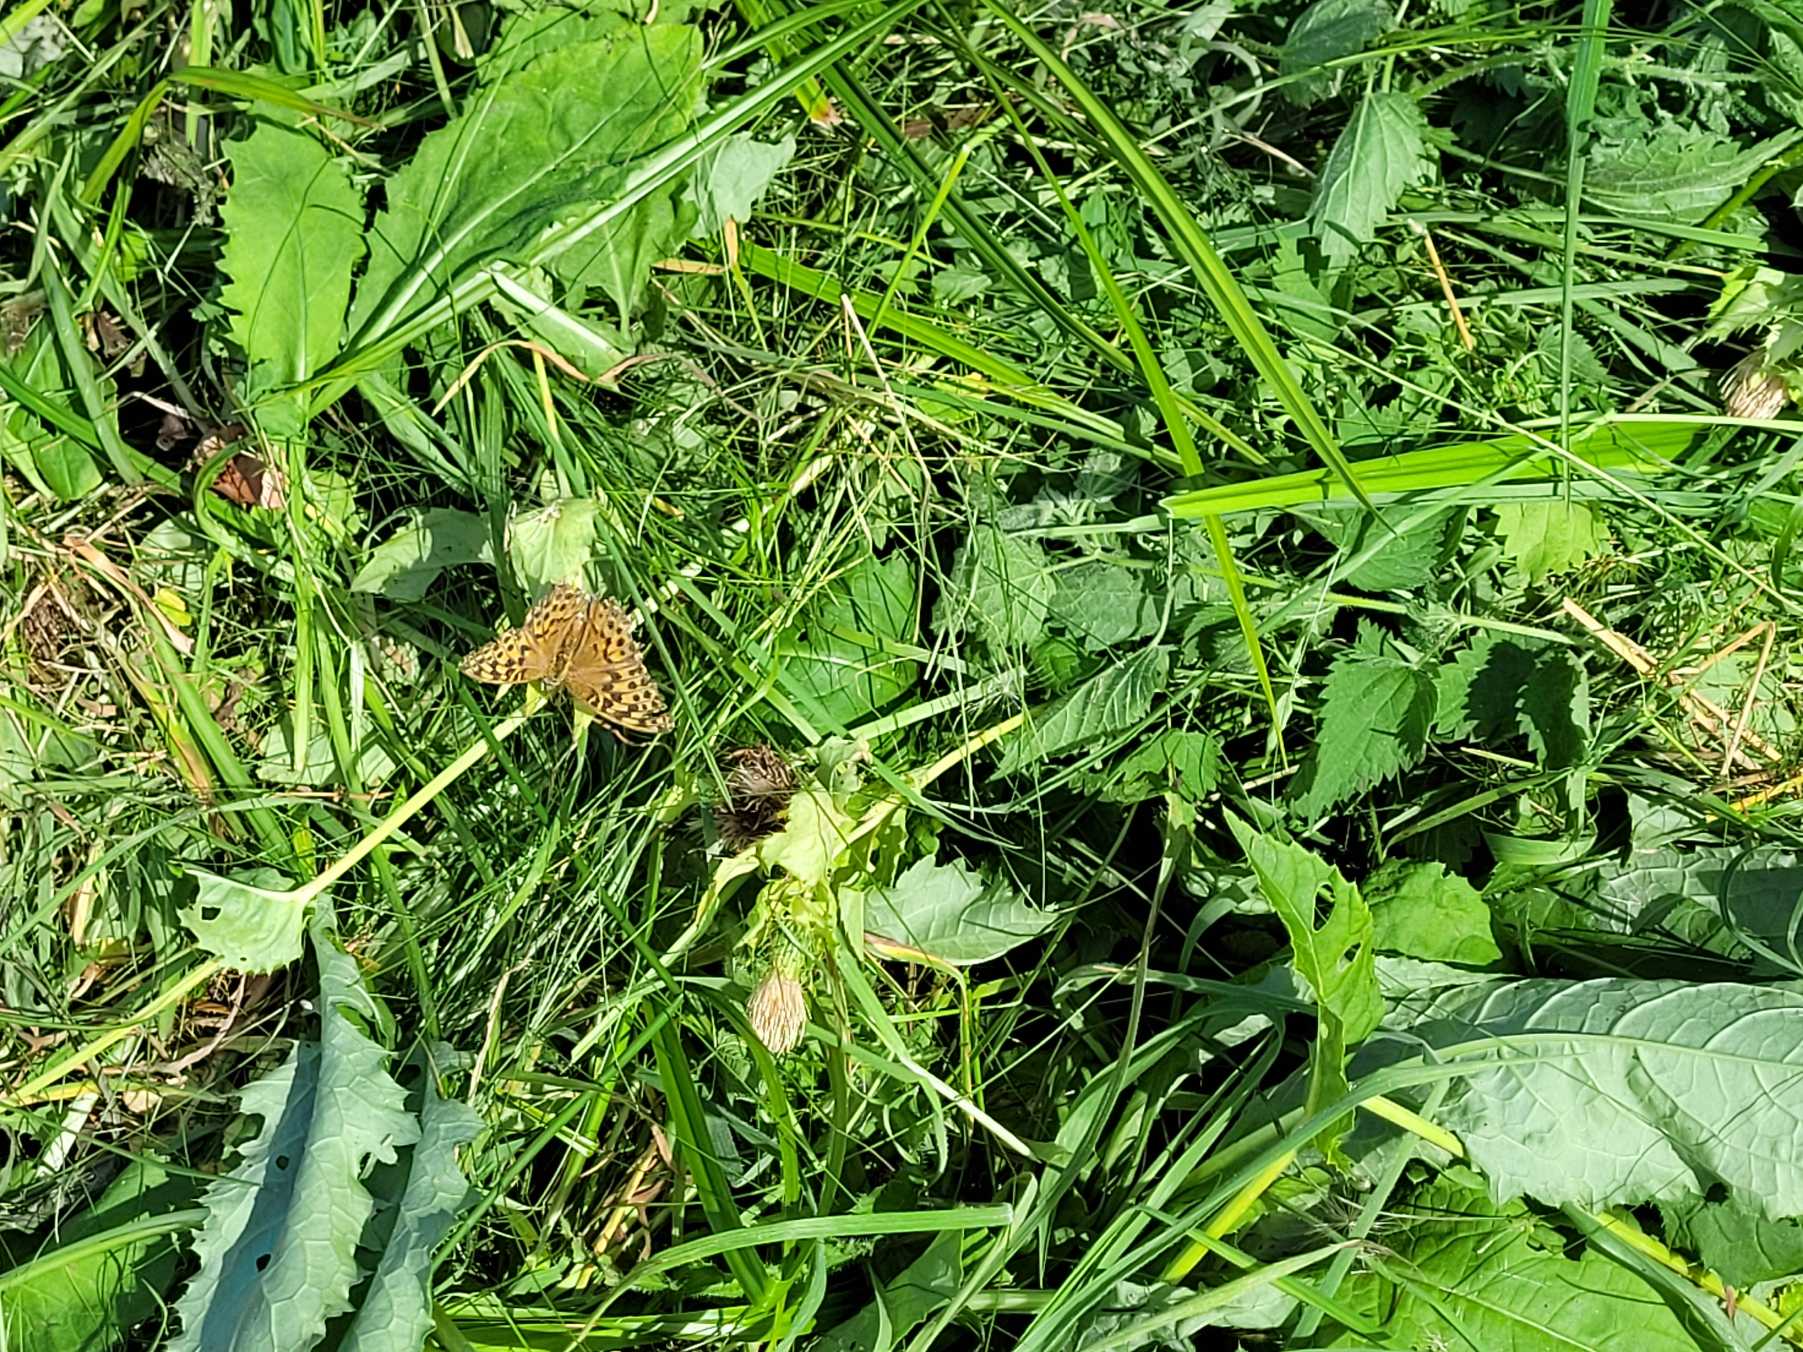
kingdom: Animalia
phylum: Arthropoda
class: Insecta
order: Lepidoptera
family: Nymphalidae
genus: Argynnis
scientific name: Argynnis paphia
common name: Kejserkåbe
